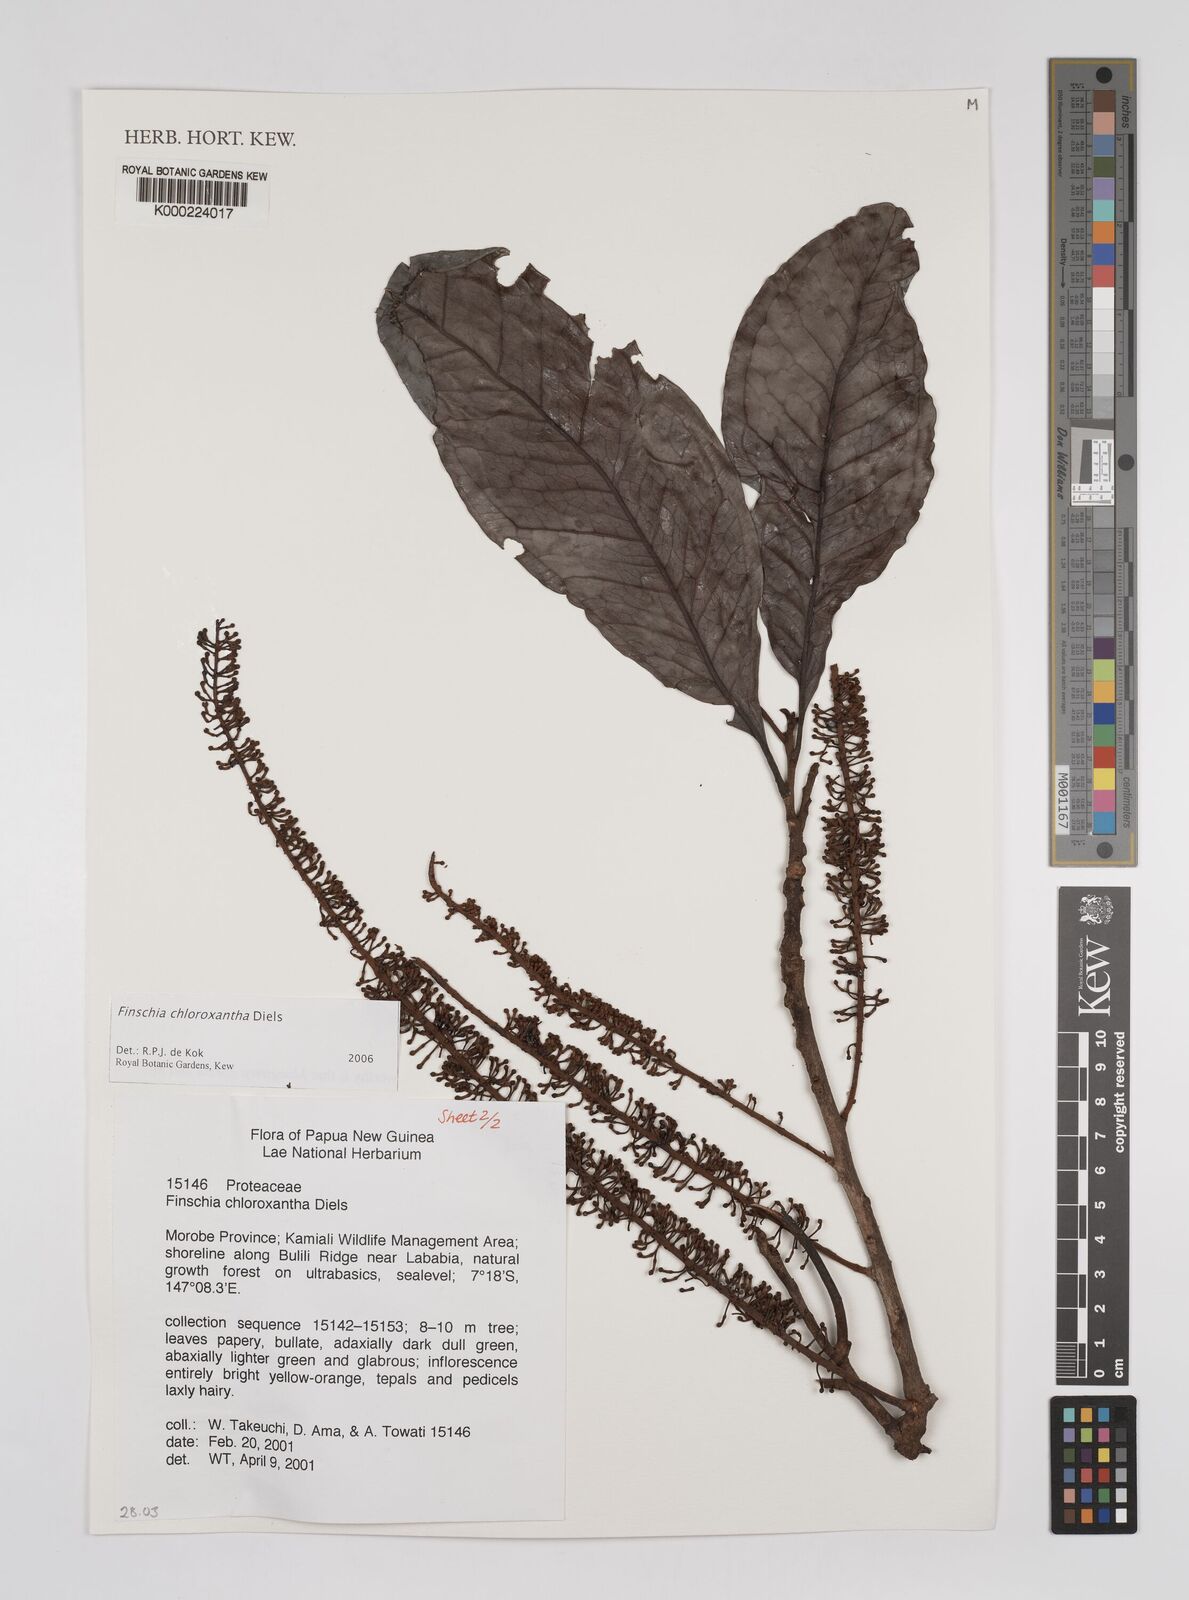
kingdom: Plantae
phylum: Tracheophyta
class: Magnoliopsida
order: Proteales
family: Proteaceae
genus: Finschia
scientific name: Finschia chloroxantha
